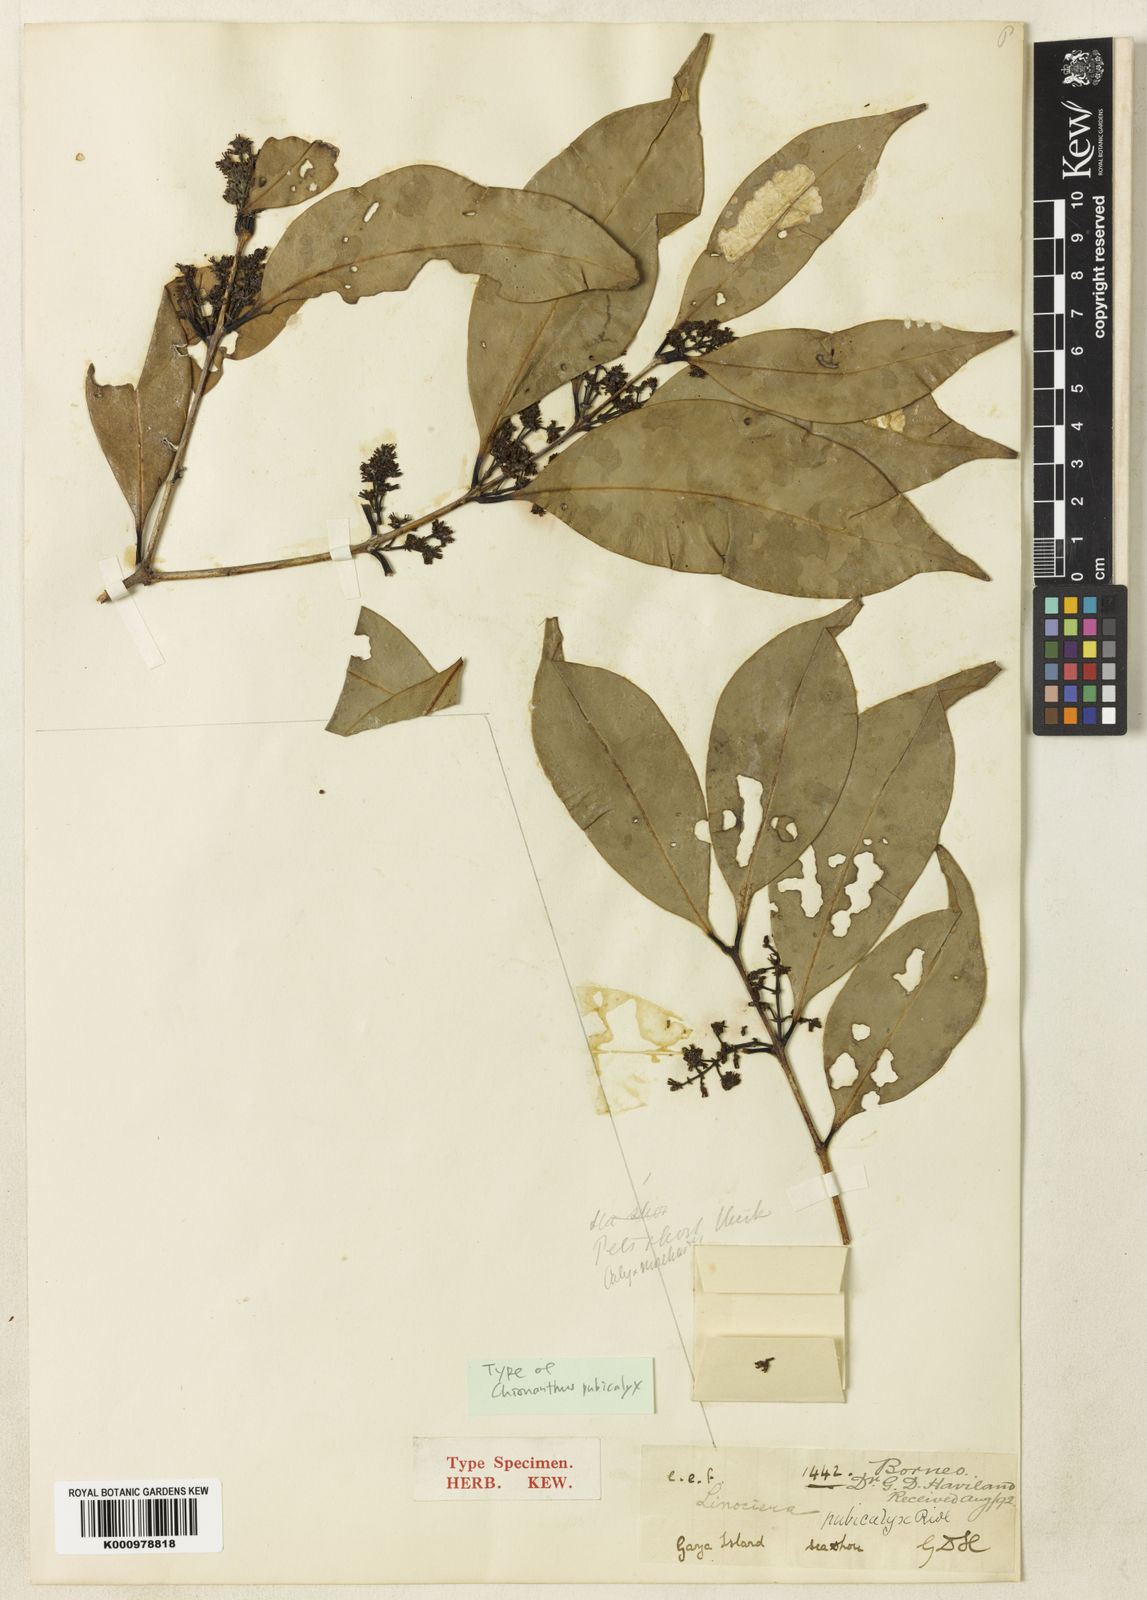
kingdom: Plantae
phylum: Tracheophyta
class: Magnoliopsida
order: Lamiales
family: Oleaceae
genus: Chionanthus
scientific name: Chionanthus pubicalyx
